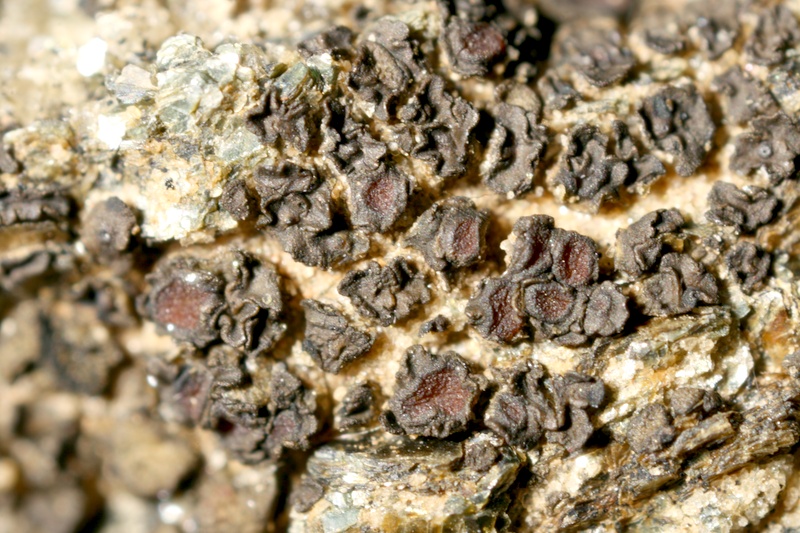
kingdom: Fungi
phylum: Ascomycota
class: Lichinomycetes
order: Lichinales
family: Peltulaceae
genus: Peltula
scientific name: Peltula hassei
